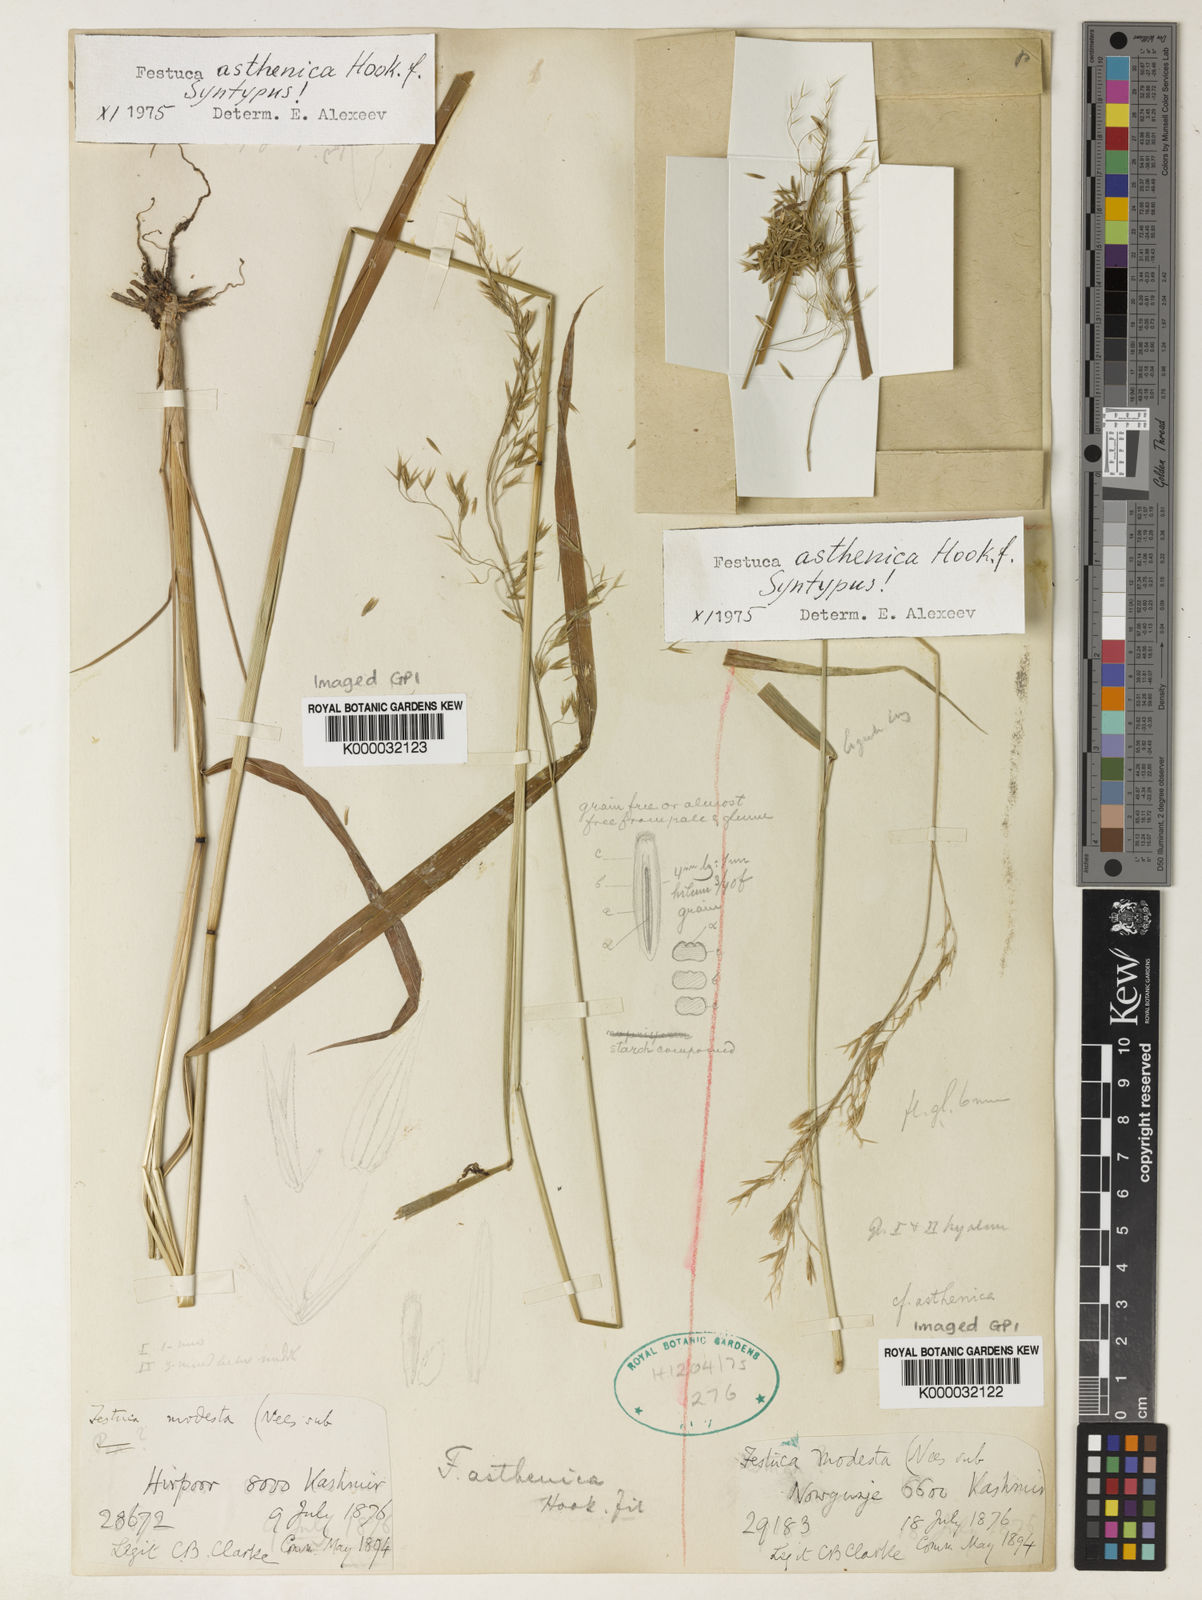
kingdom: Plantae
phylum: Tracheophyta
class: Liliopsida
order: Poales
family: Poaceae
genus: Festuca
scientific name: Festuca
